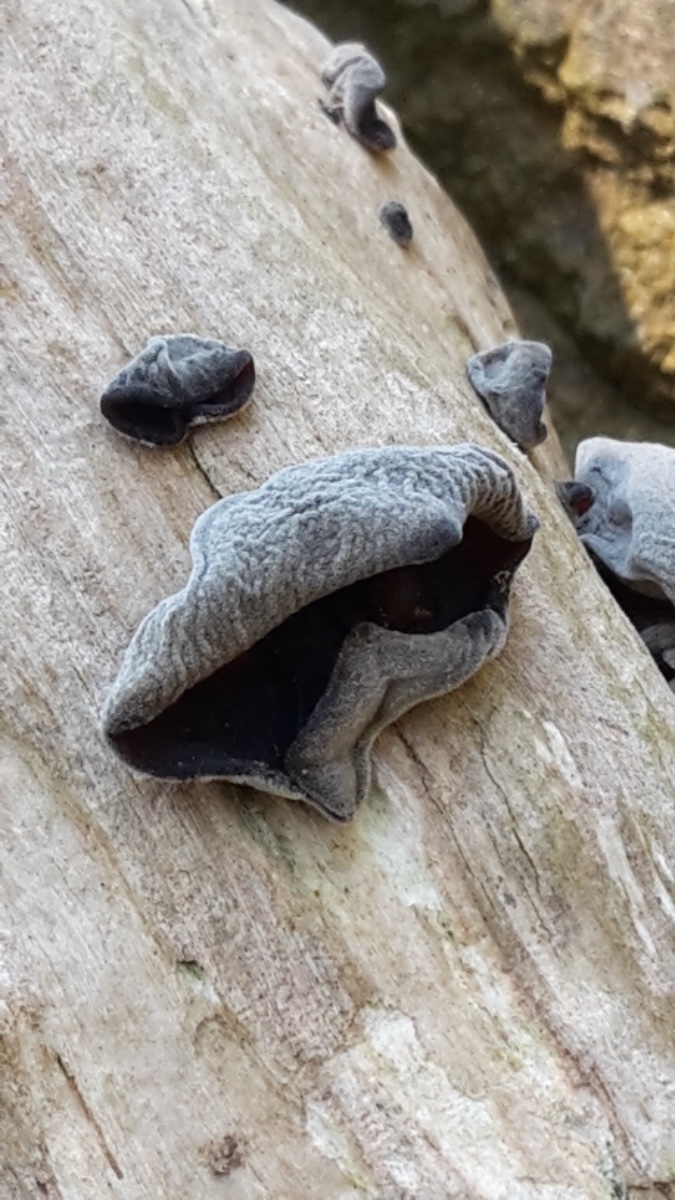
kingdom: Fungi
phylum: Basidiomycota
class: Agaricomycetes
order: Auriculariales
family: Auriculariaceae
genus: Auricularia
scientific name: Auricularia auricula-judae
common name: almindelig judasøre
